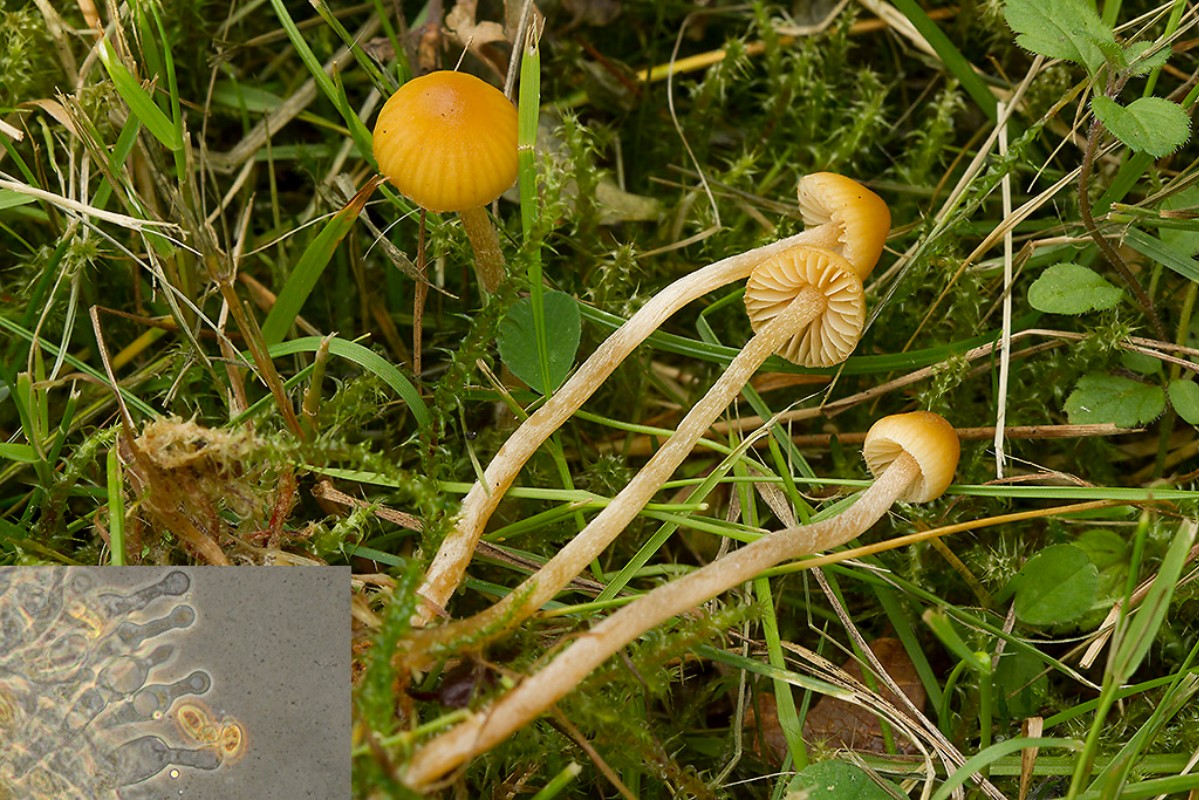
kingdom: Fungi
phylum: Basidiomycota
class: Agaricomycetes
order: Agaricales
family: Hymenogastraceae
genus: Galerina
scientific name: Galerina clavata
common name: kær-hjelmhat
